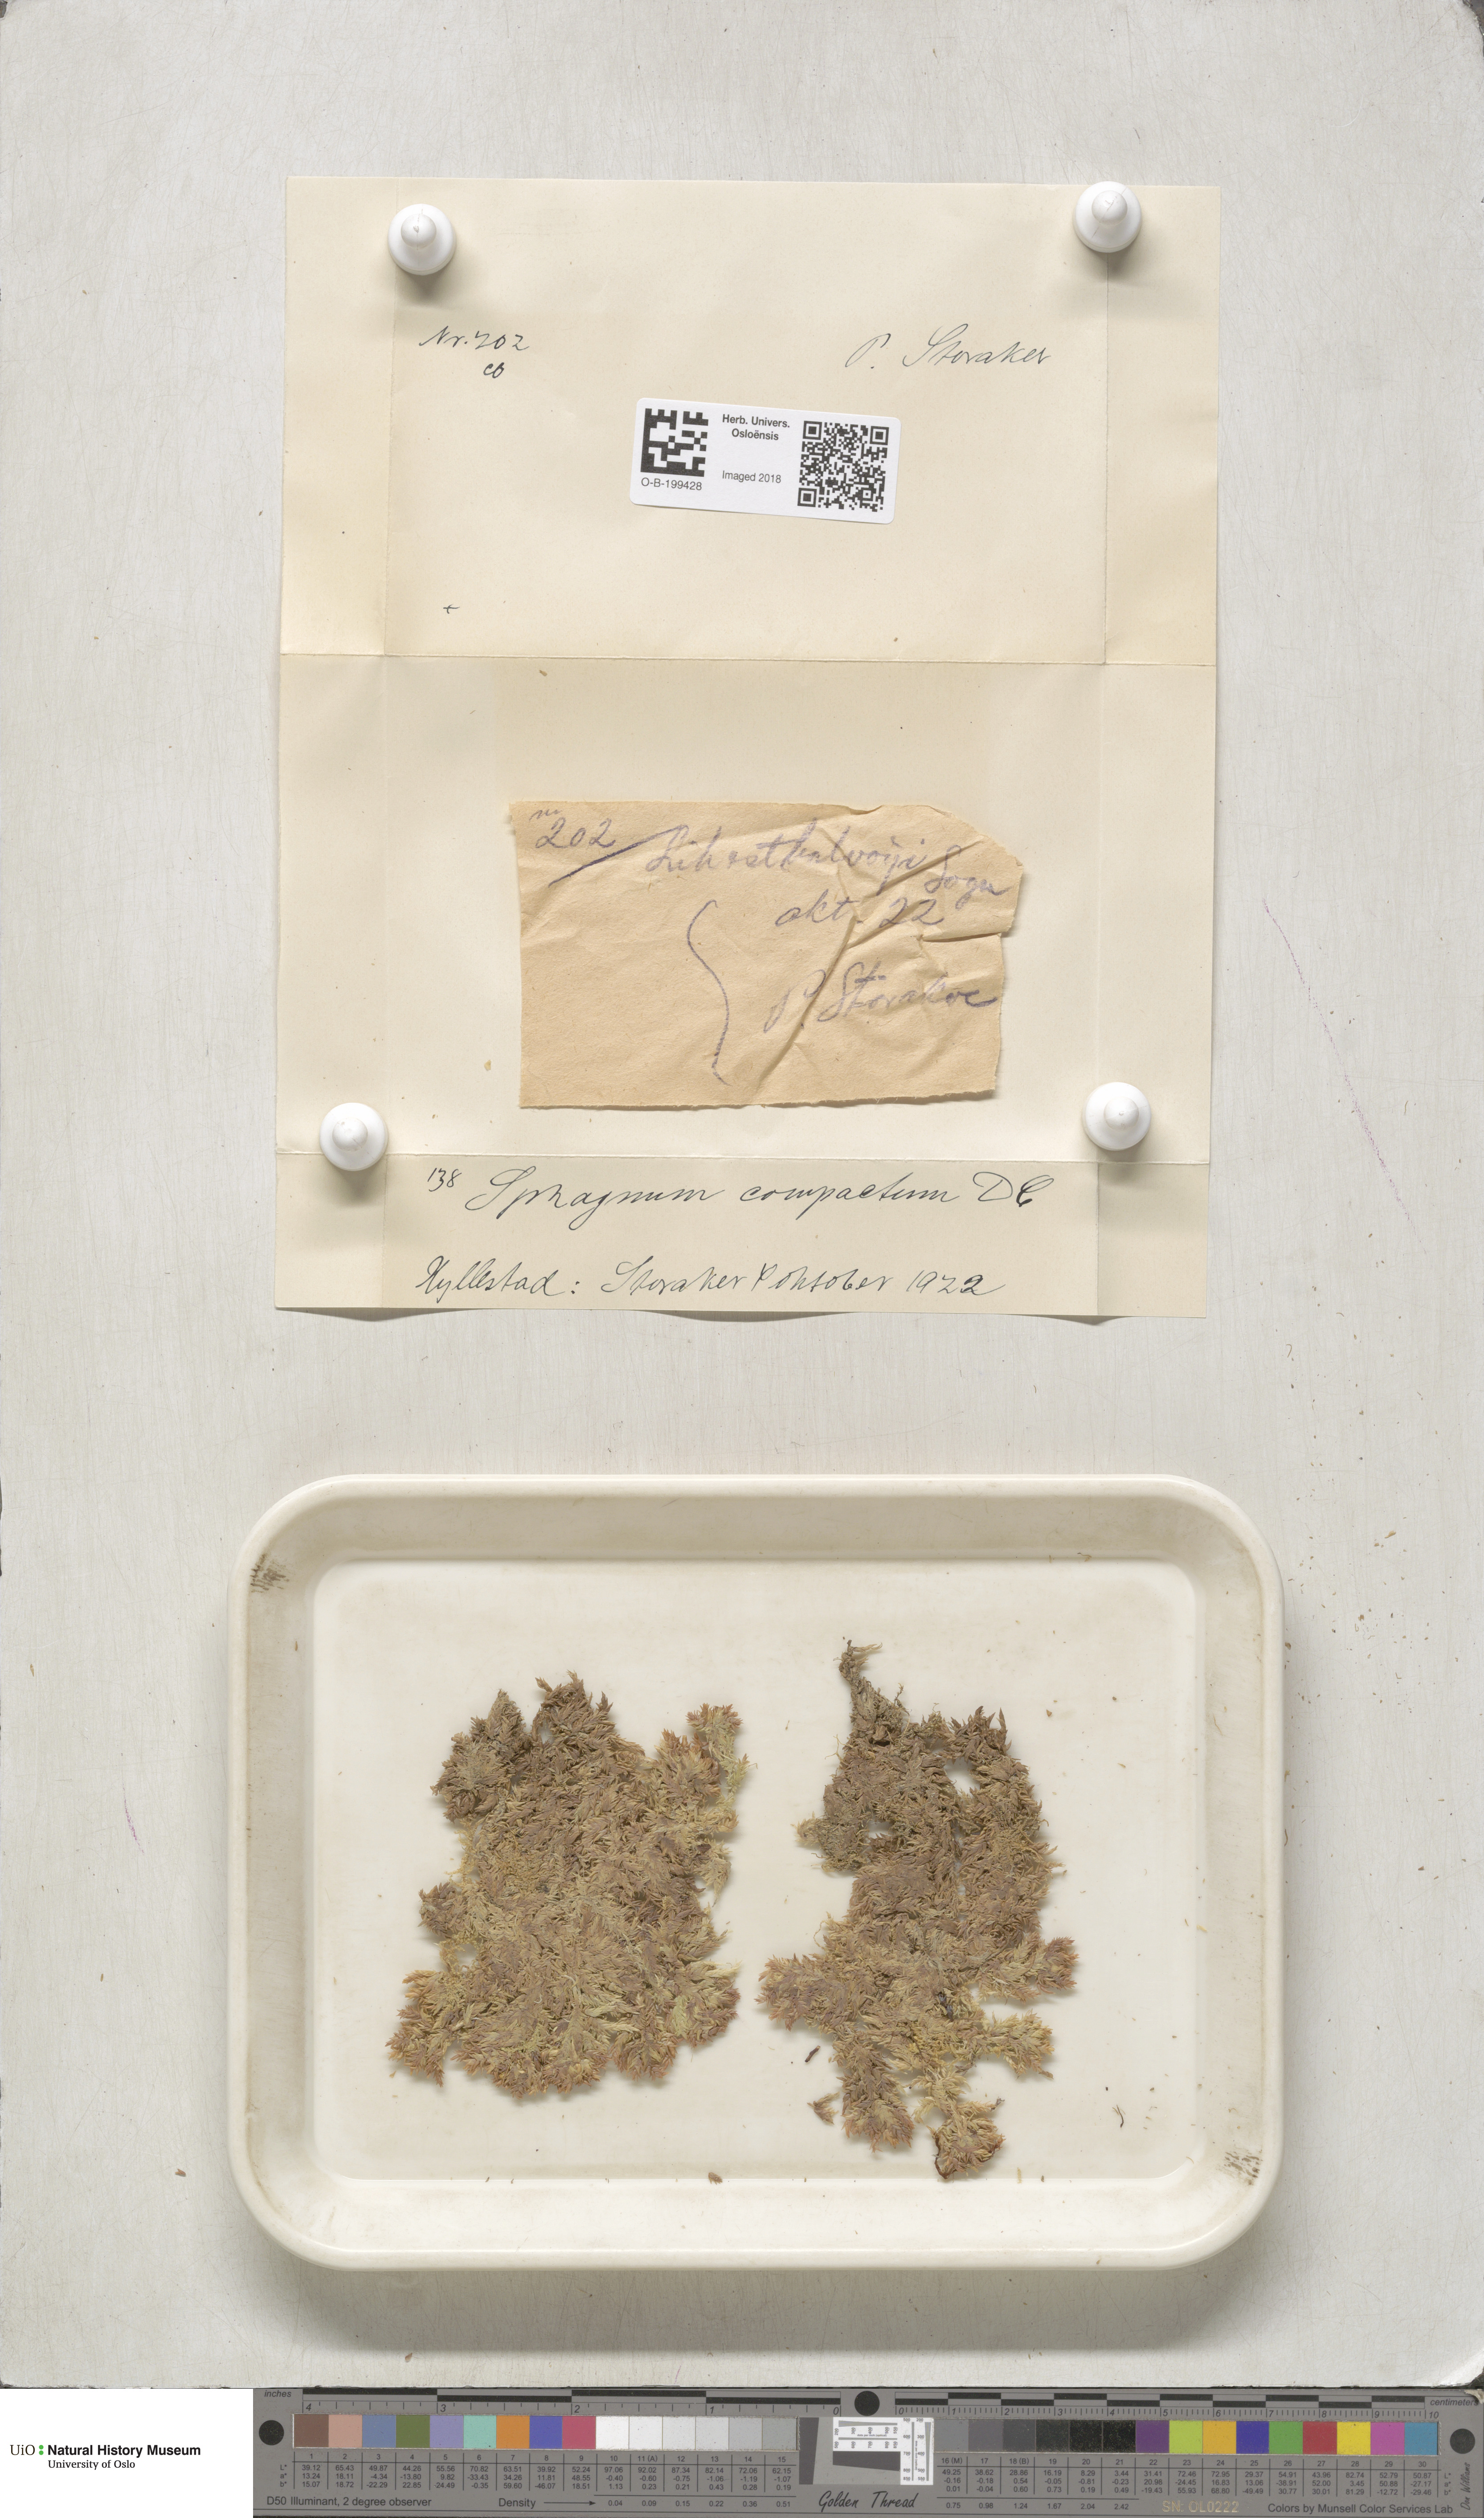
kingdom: Plantae
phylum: Bryophyta
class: Sphagnopsida
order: Sphagnales
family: Sphagnaceae
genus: Sphagnum
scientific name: Sphagnum compactum
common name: Compact peat moss
